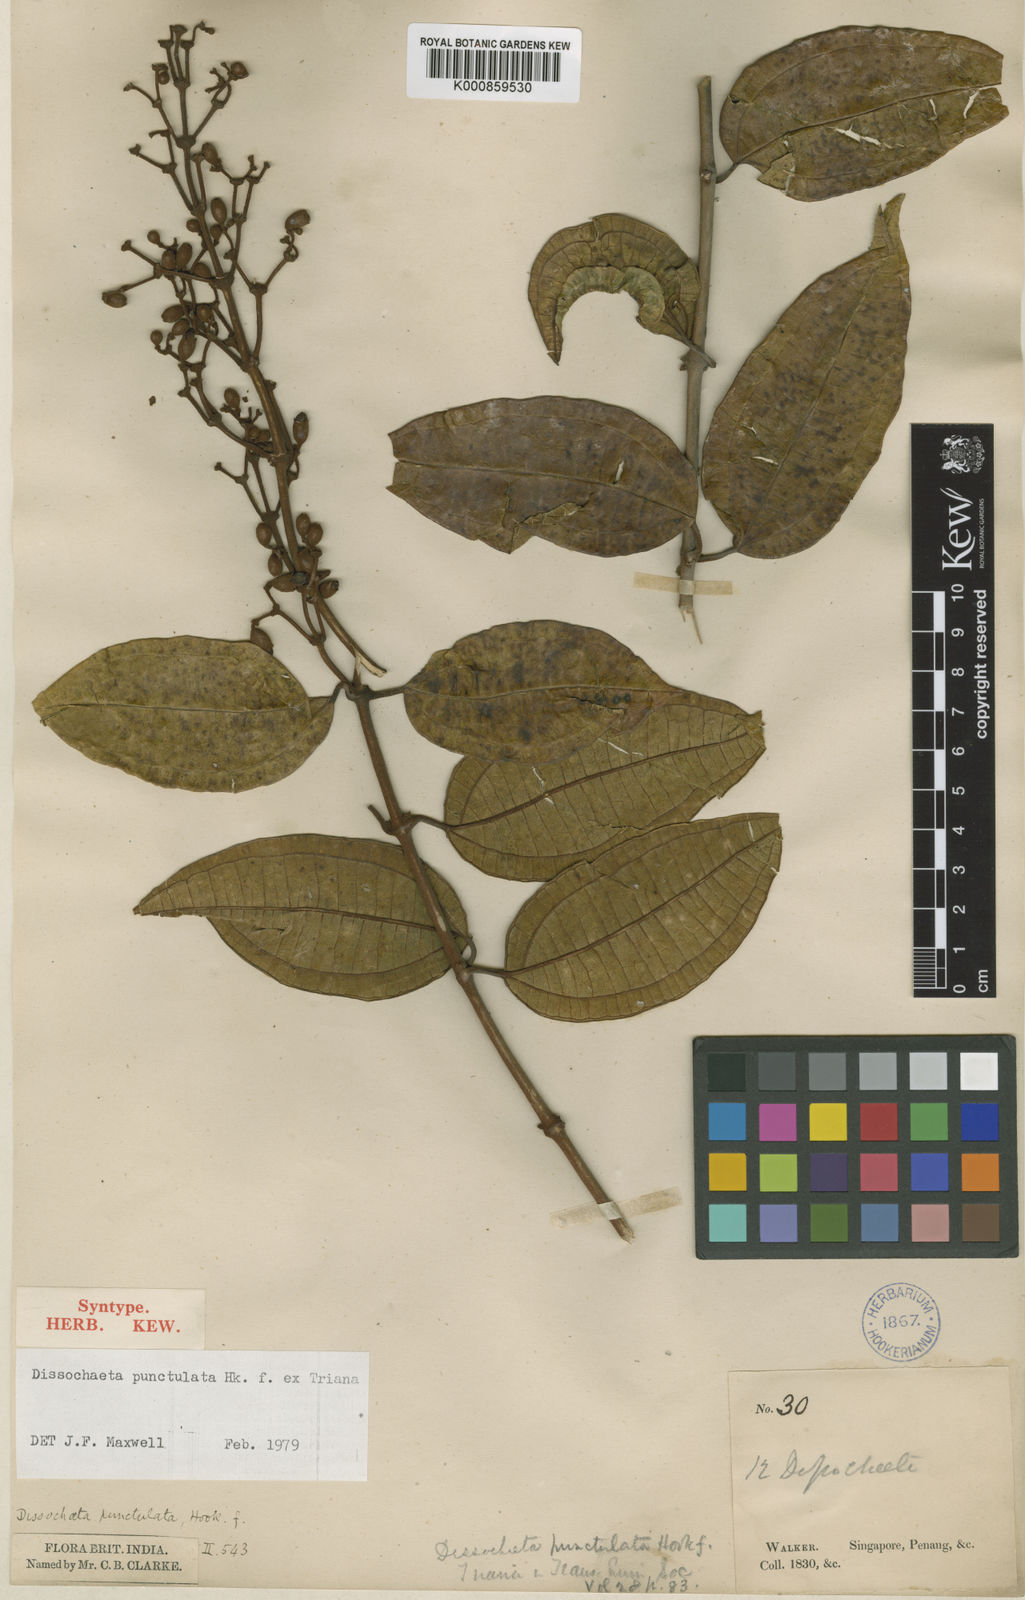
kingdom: Plantae
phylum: Tracheophyta
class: Magnoliopsida
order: Myrtales
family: Melastomataceae
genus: Dissochaeta
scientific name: Dissochaeta punctulata
